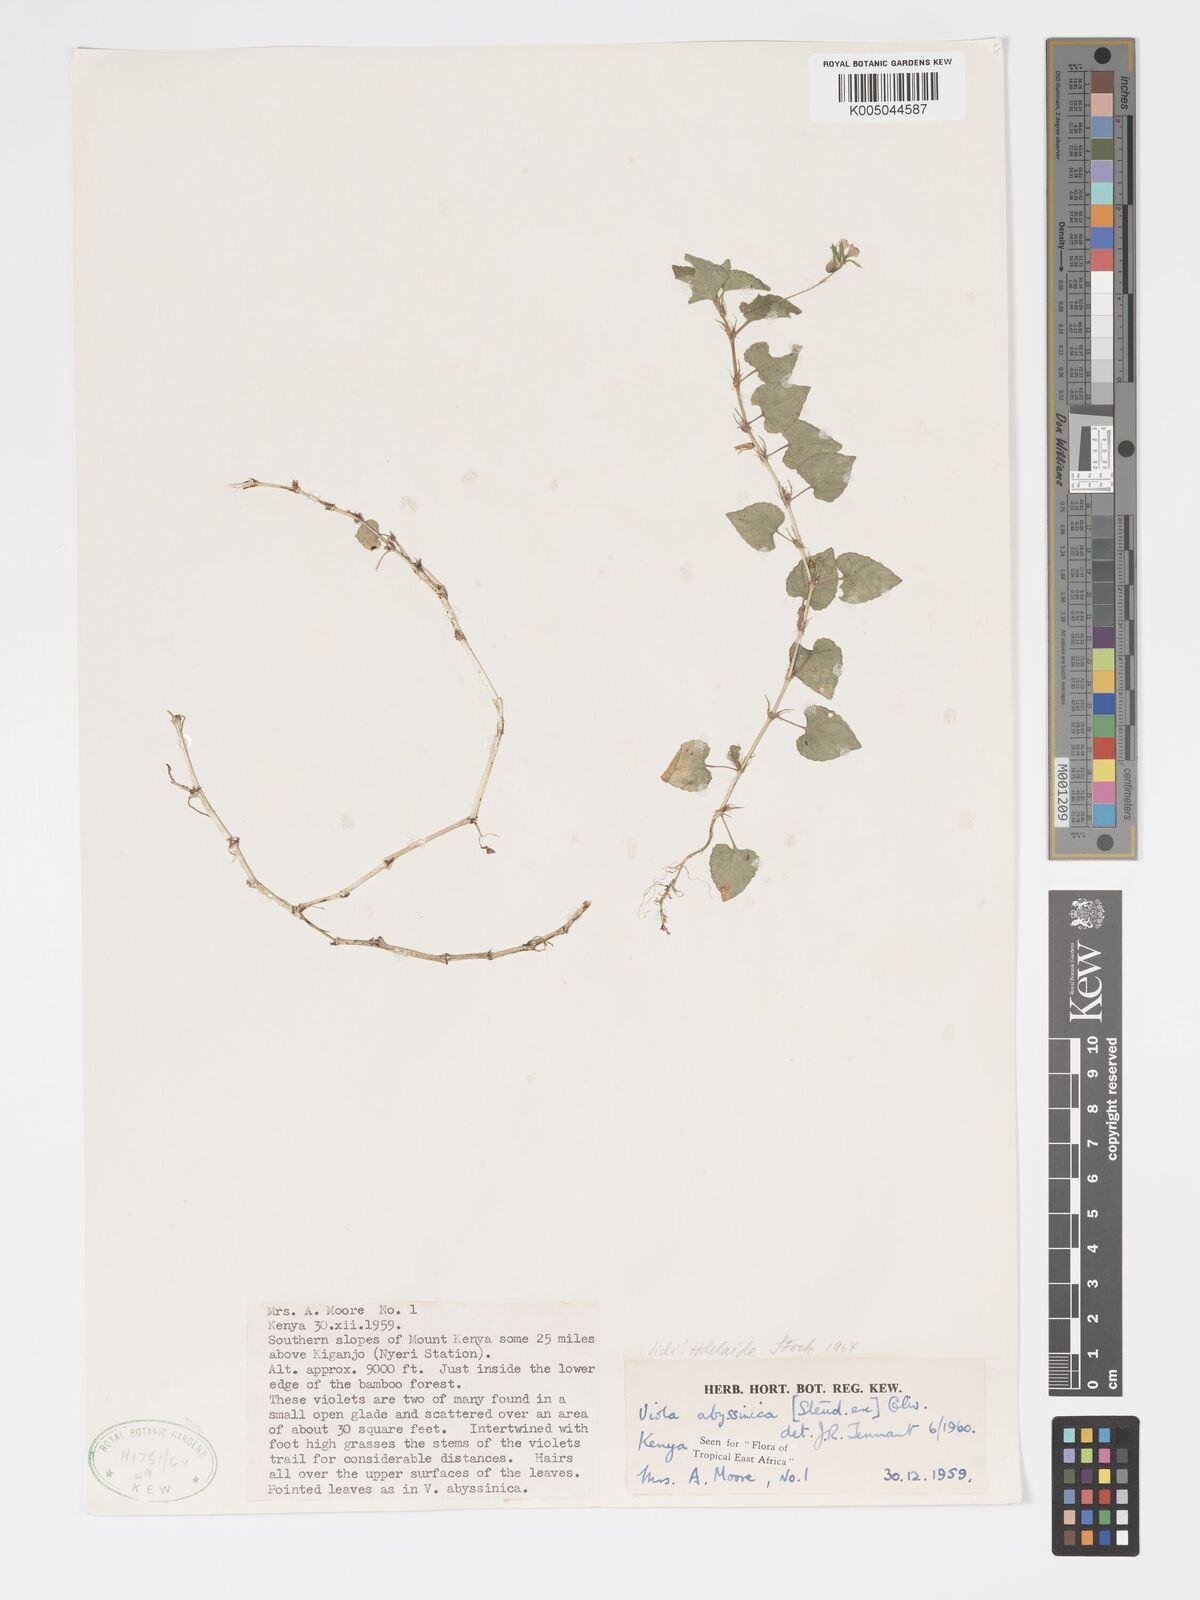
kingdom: Plantae
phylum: Tracheophyta
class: Magnoliopsida
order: Malpighiales
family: Violaceae
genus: Viola
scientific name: Viola abyssinica
